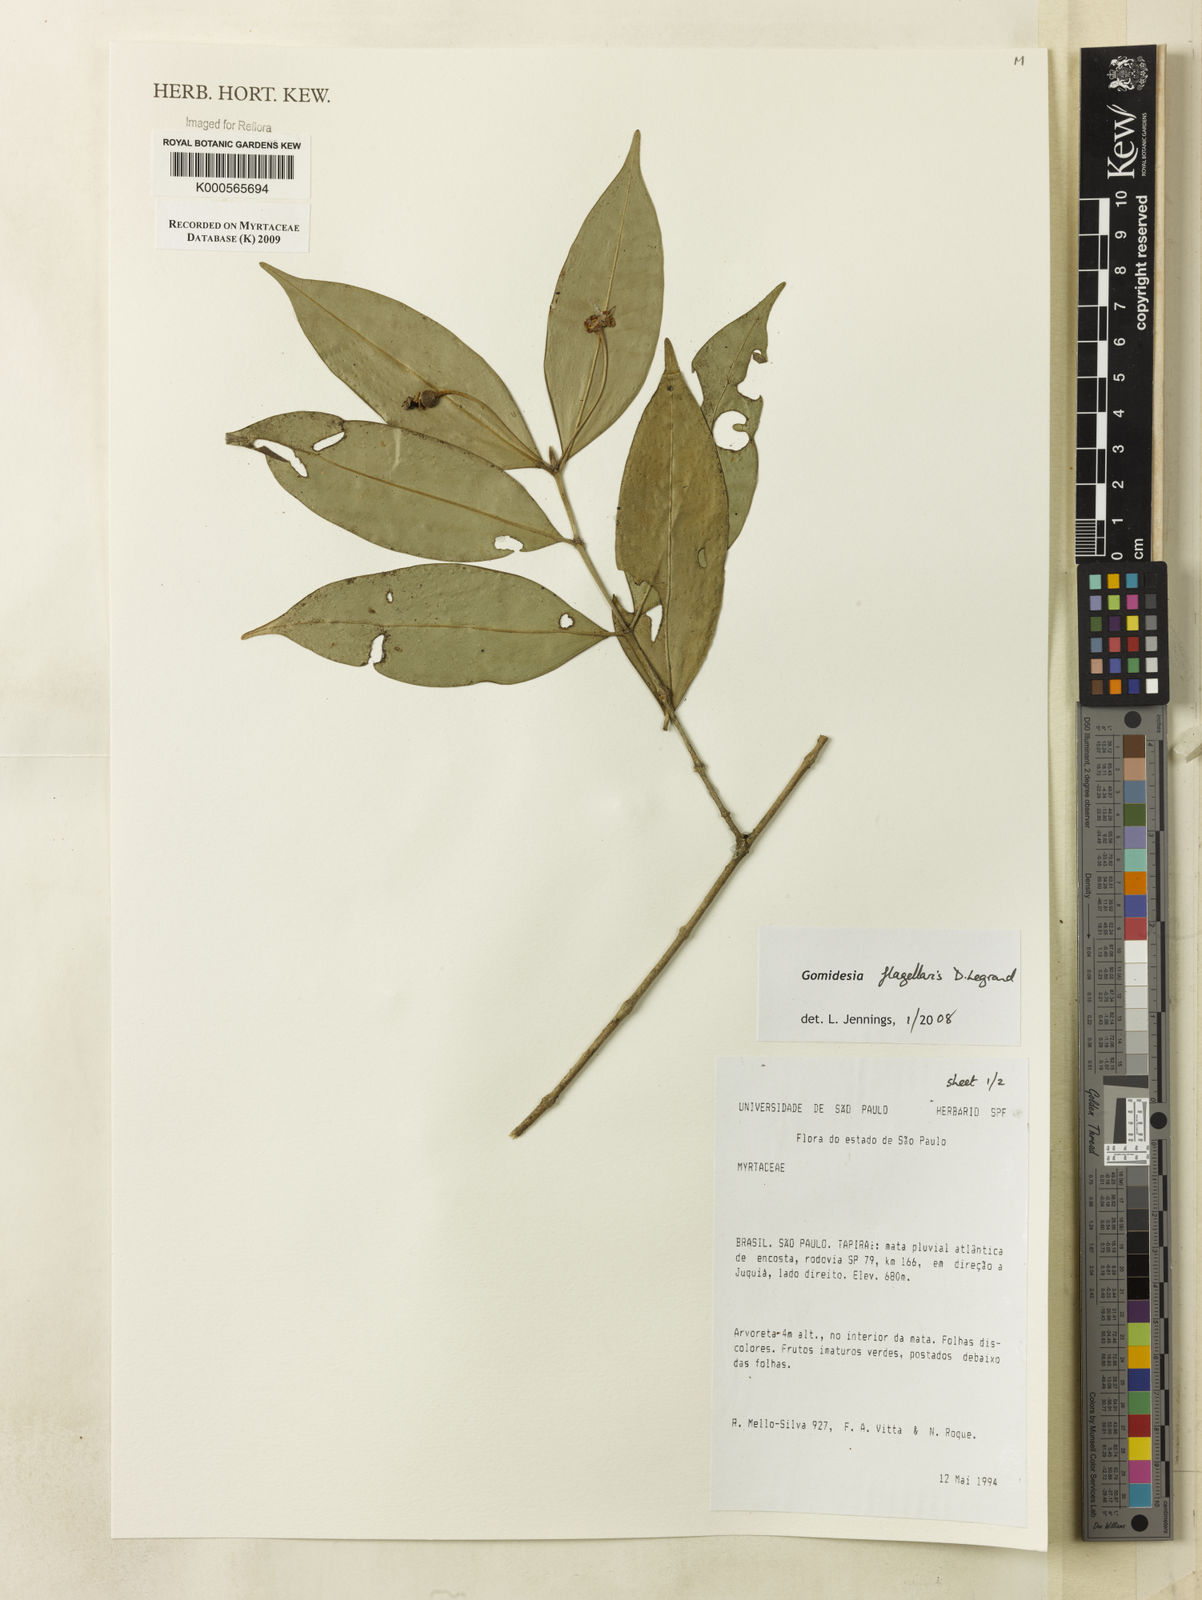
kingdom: Plantae
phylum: Tracheophyta
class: Magnoliopsida
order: Myrtales
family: Myrtaceae
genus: Myrcia
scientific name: Myrcia flagellaris
